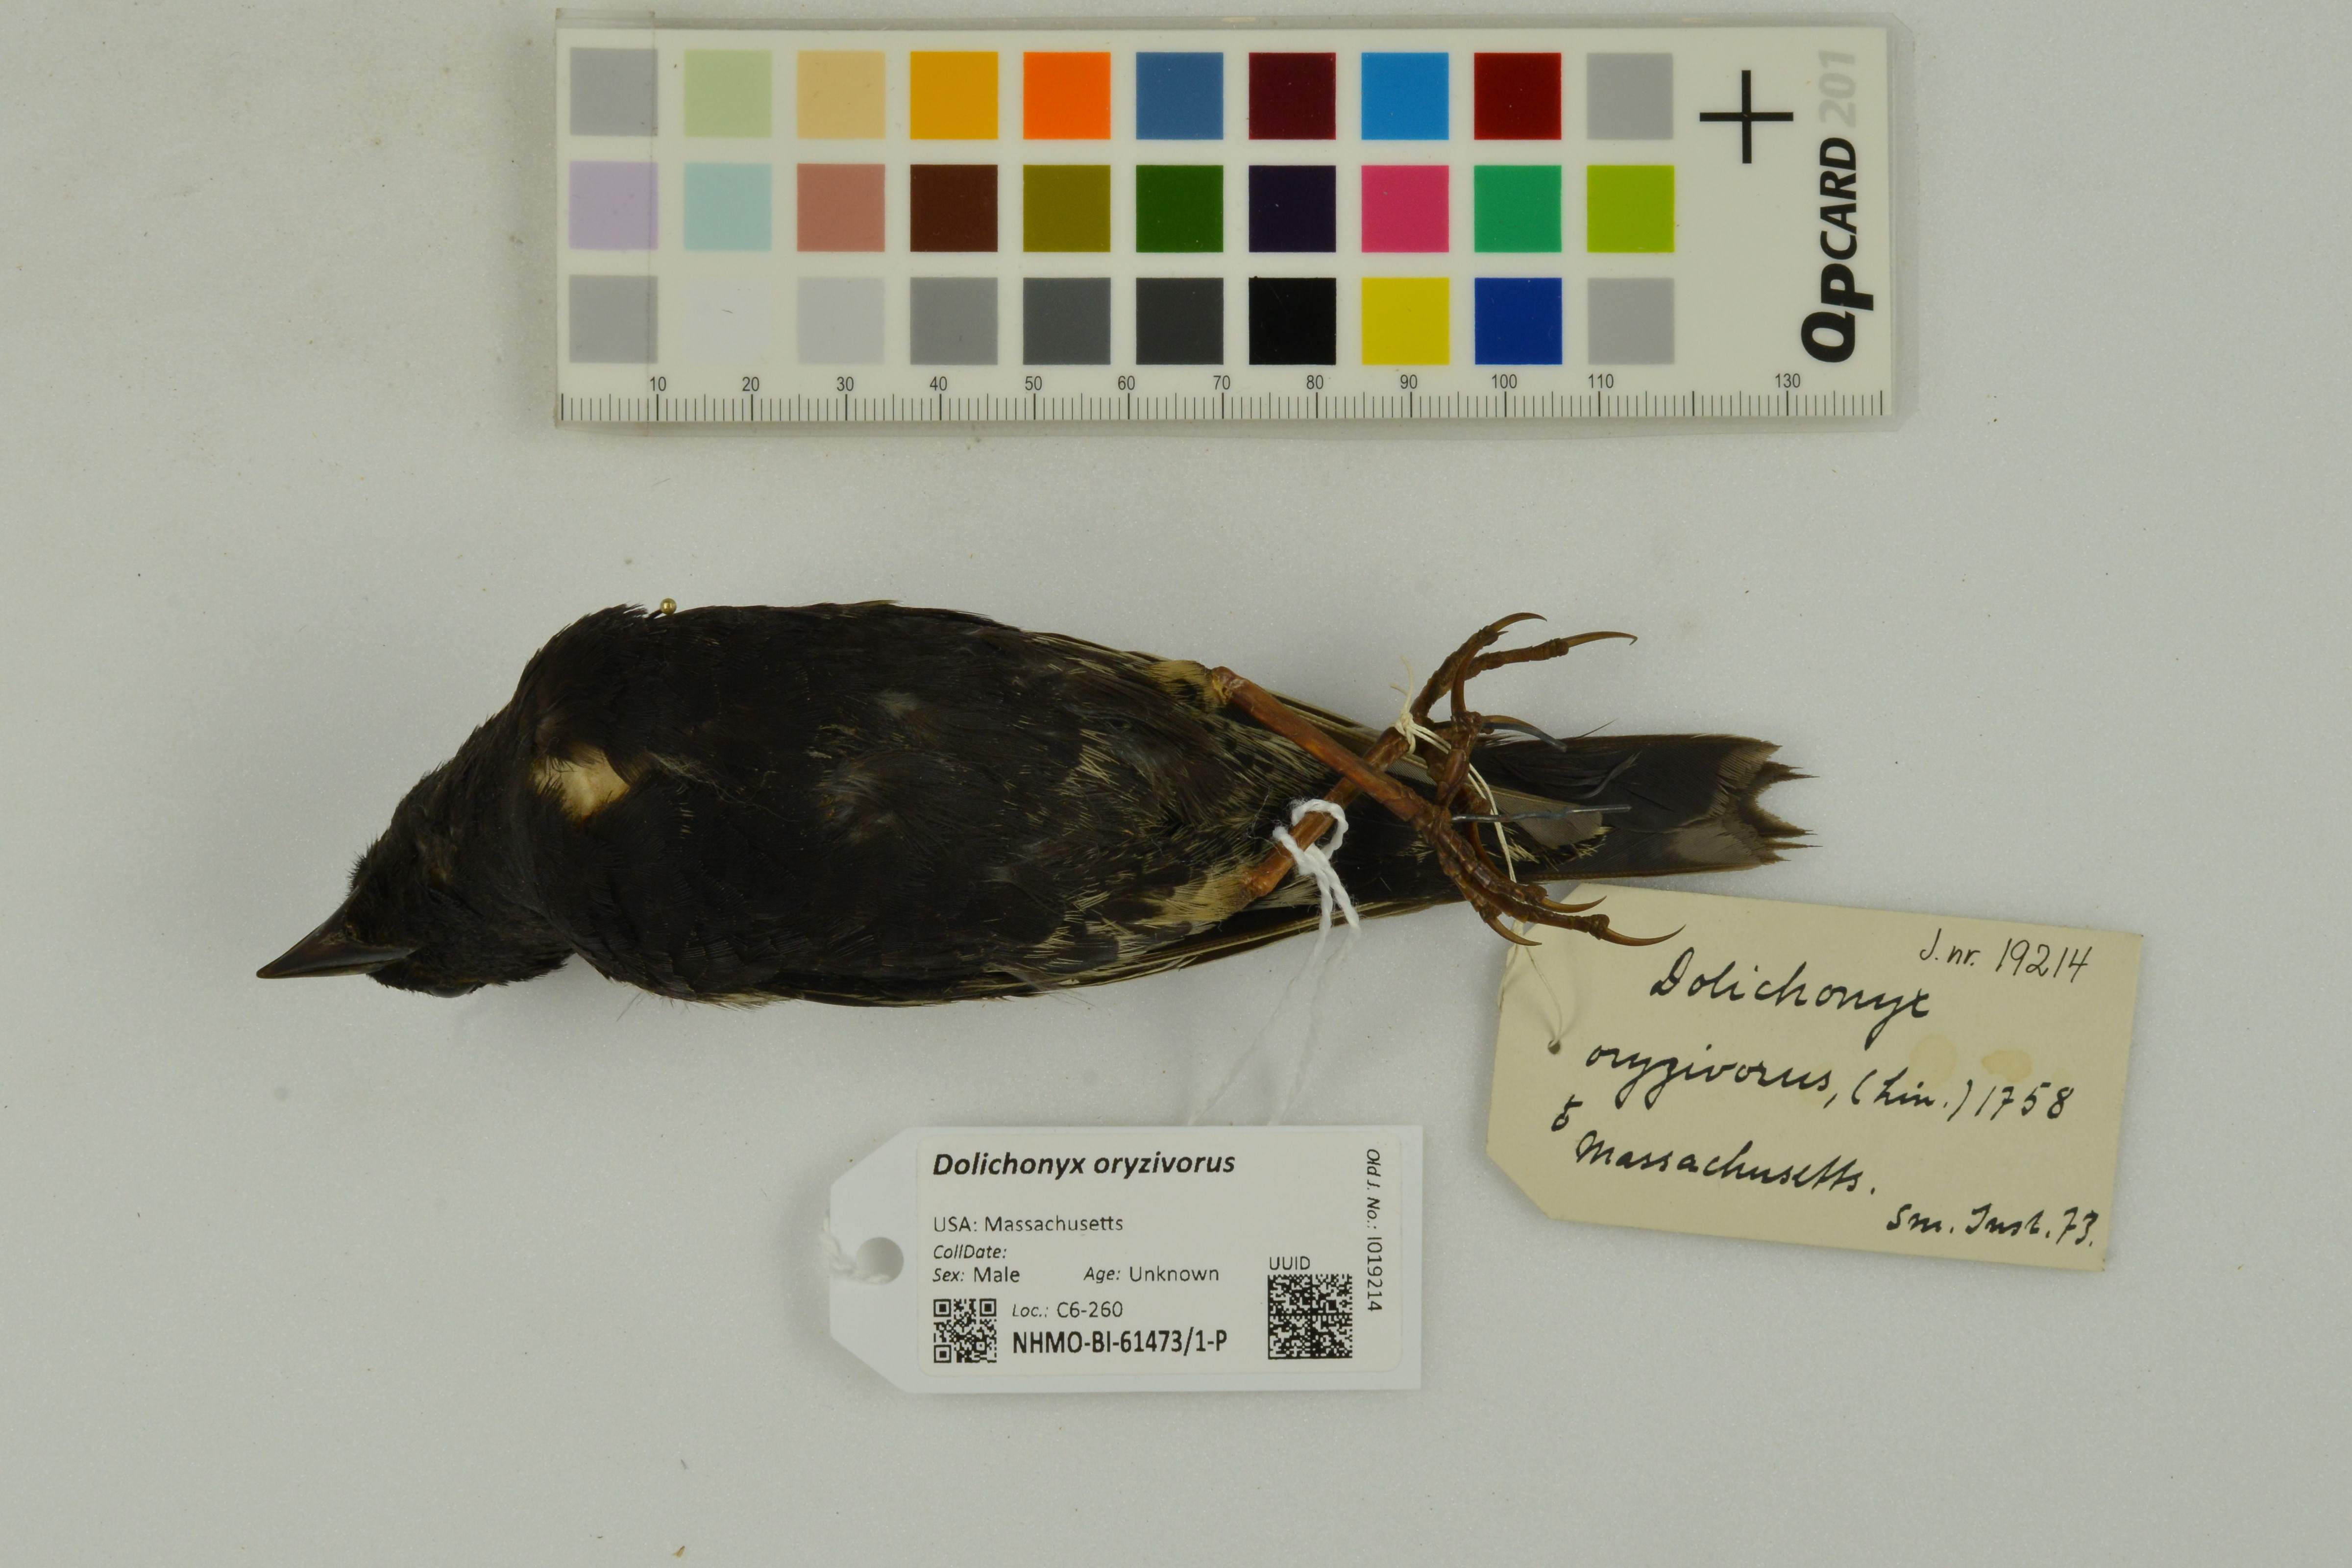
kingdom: Animalia
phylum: Chordata
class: Aves
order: Passeriformes
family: Icteridae
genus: Dolichonyx
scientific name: Dolichonyx oryzivorus
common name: Bobolink
